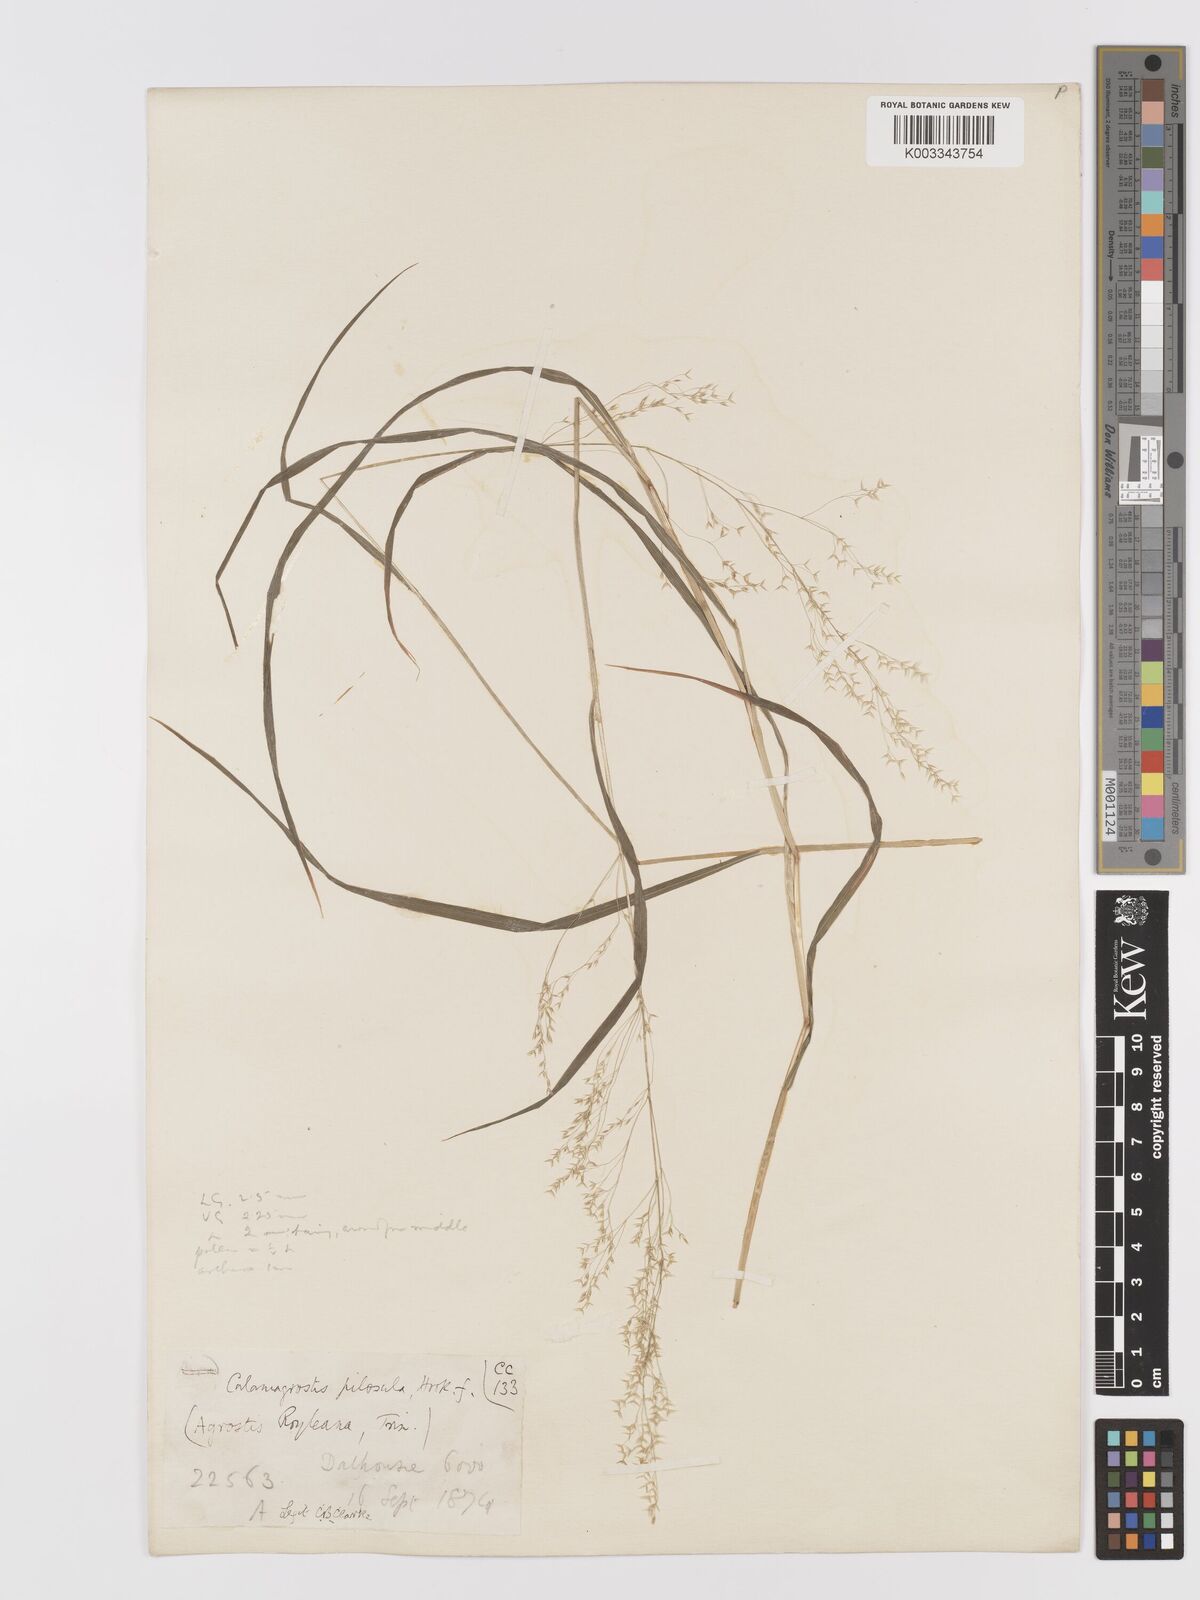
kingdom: Plantae
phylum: Tracheophyta
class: Liliopsida
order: Poales
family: Poaceae
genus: Agrostis
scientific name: Agrostis pilosula
